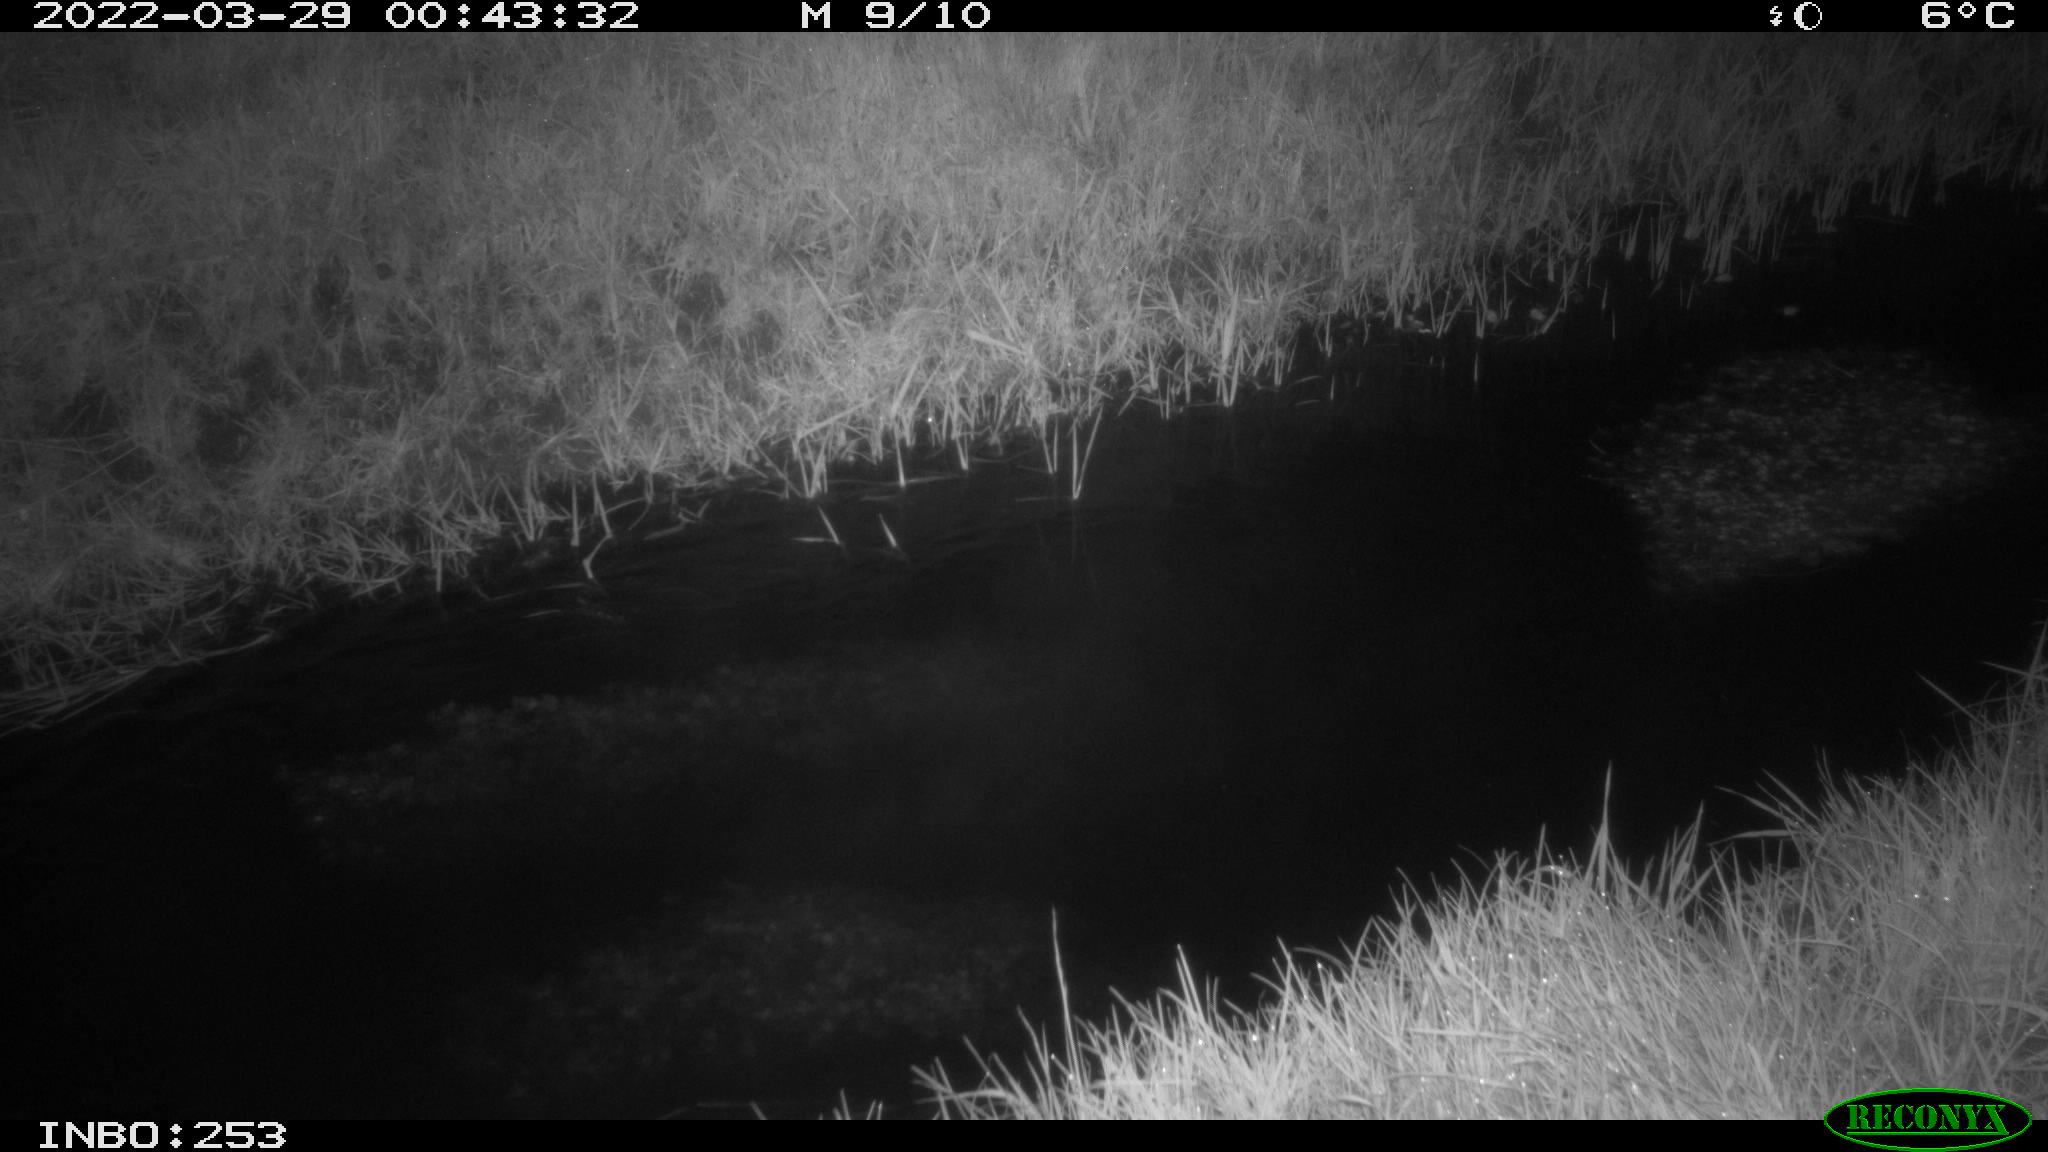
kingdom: Animalia
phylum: Chordata
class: Aves
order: Anseriformes
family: Anatidae
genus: Anas
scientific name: Anas platyrhynchos
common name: Mallard
